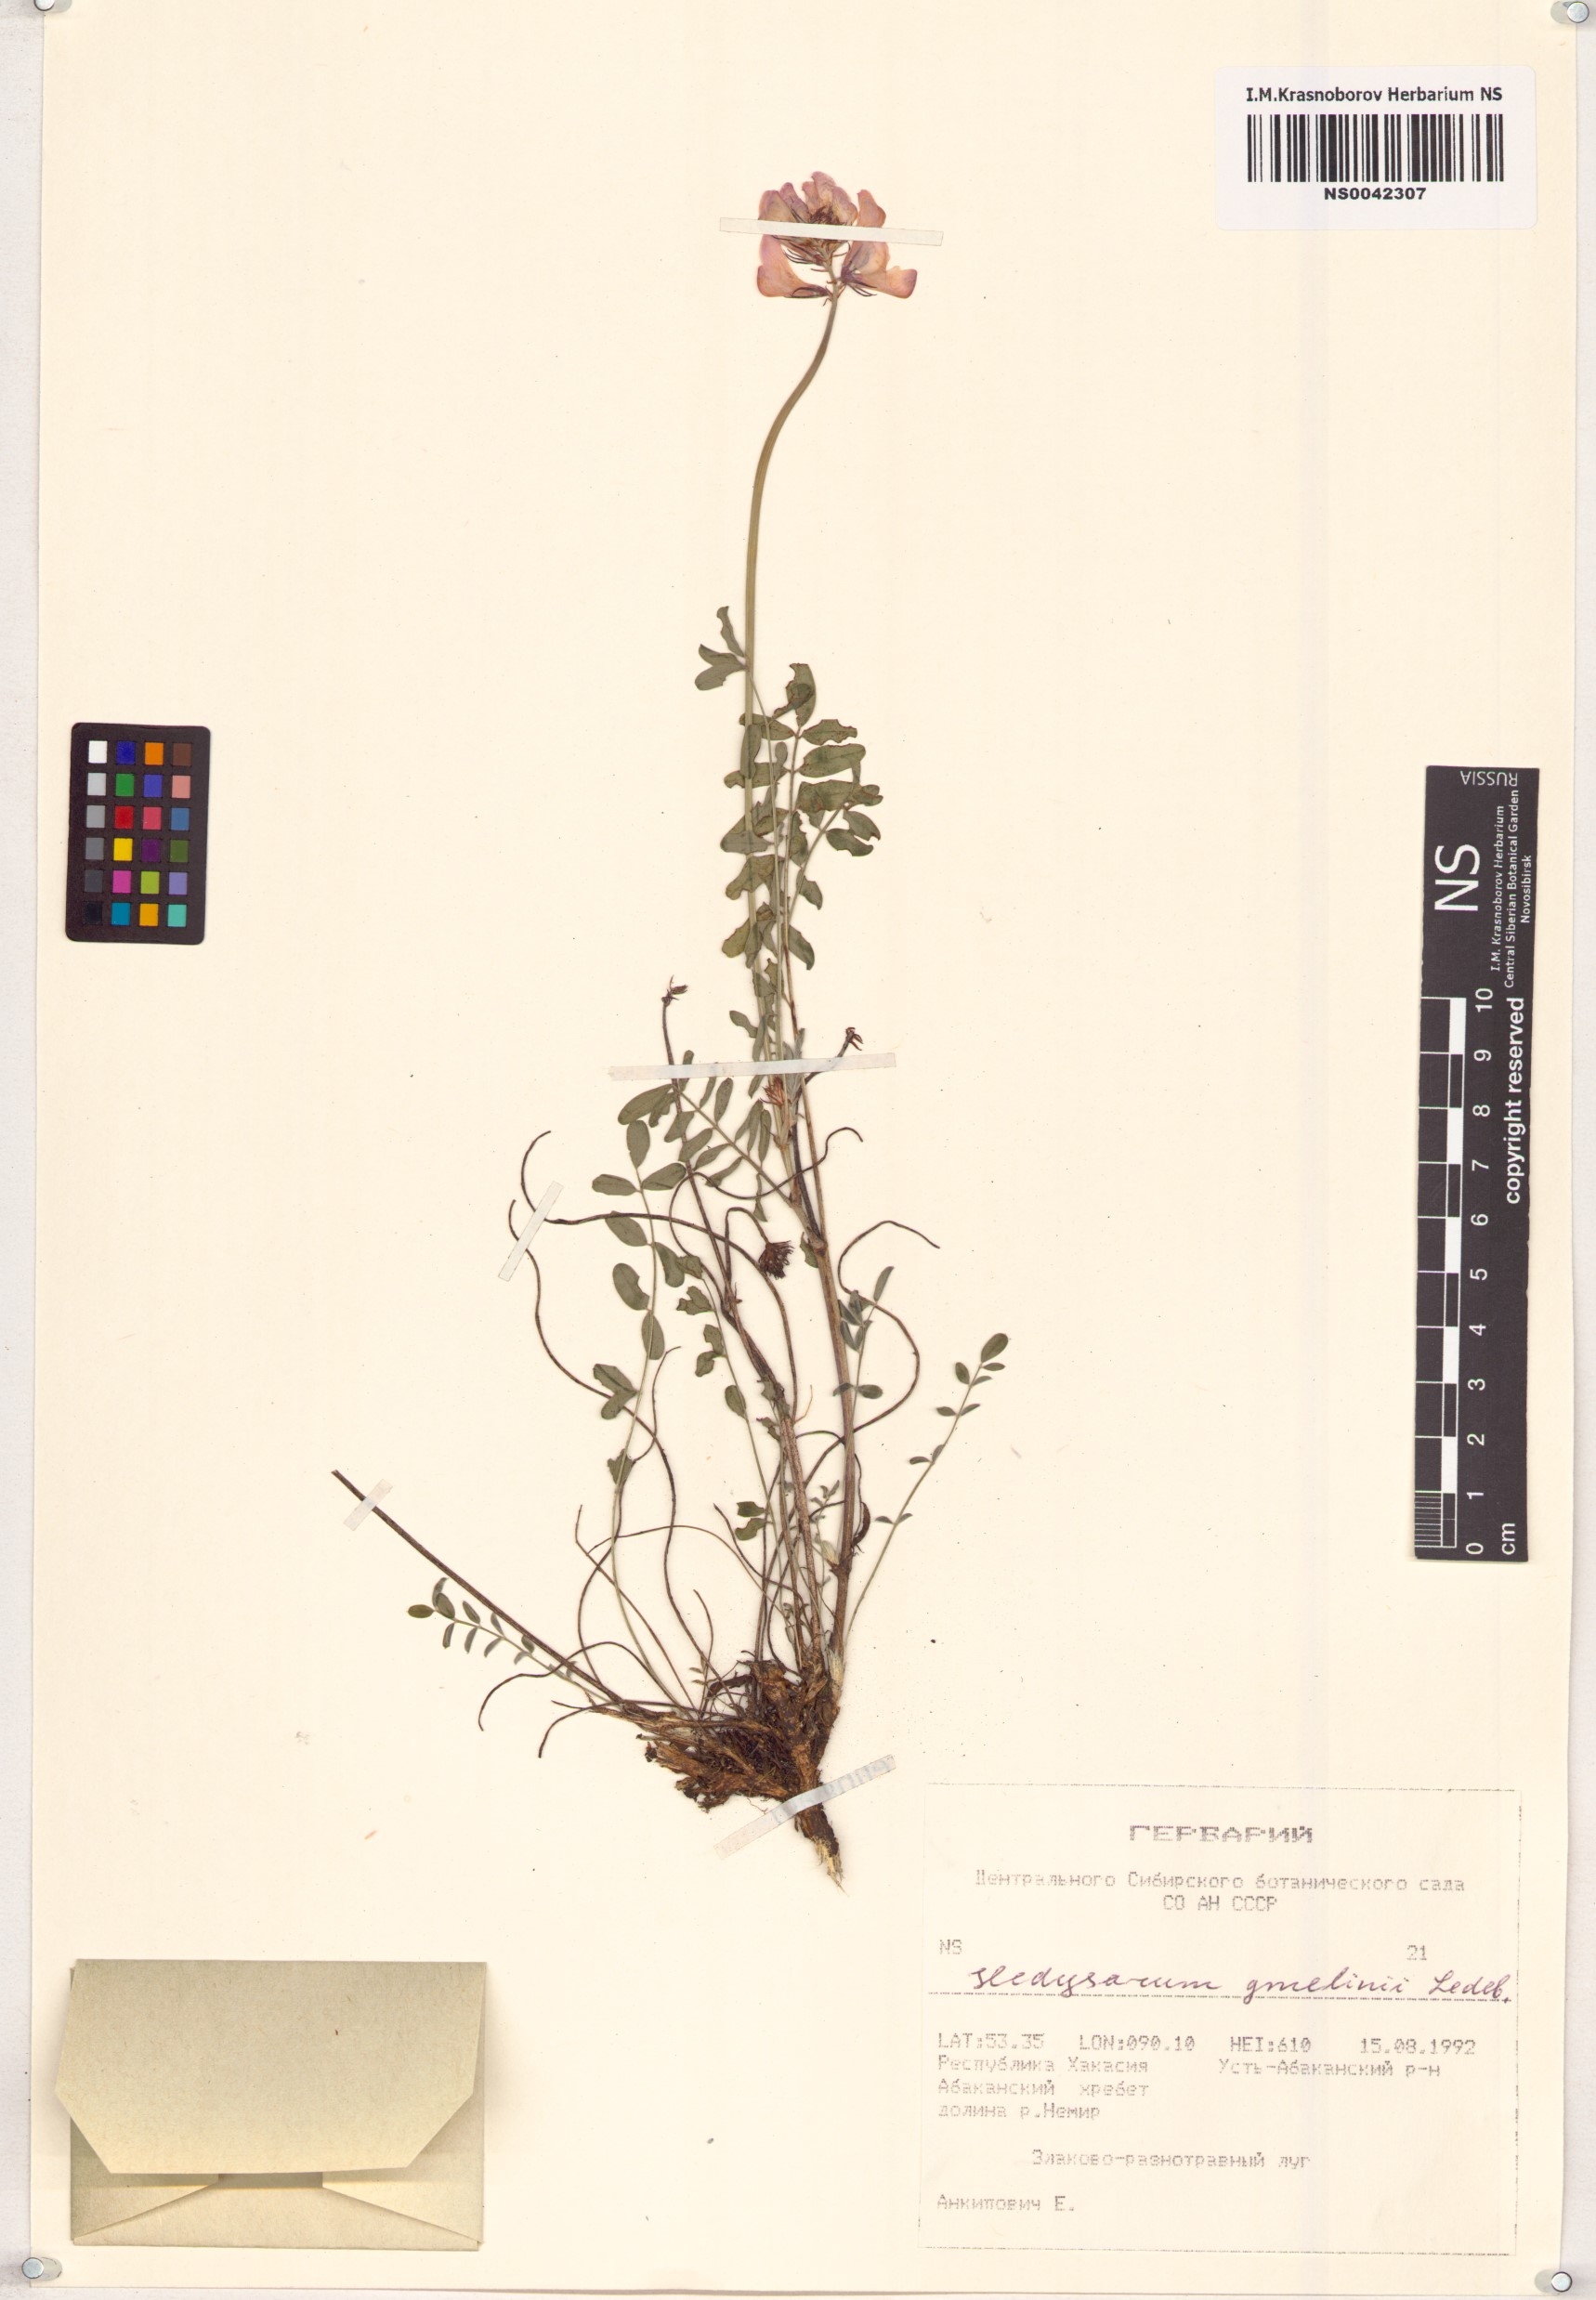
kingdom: Plantae
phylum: Tracheophyta
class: Magnoliopsida
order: Fabales
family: Fabaceae
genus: Hedysarum
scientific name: Hedysarum gmelinii
